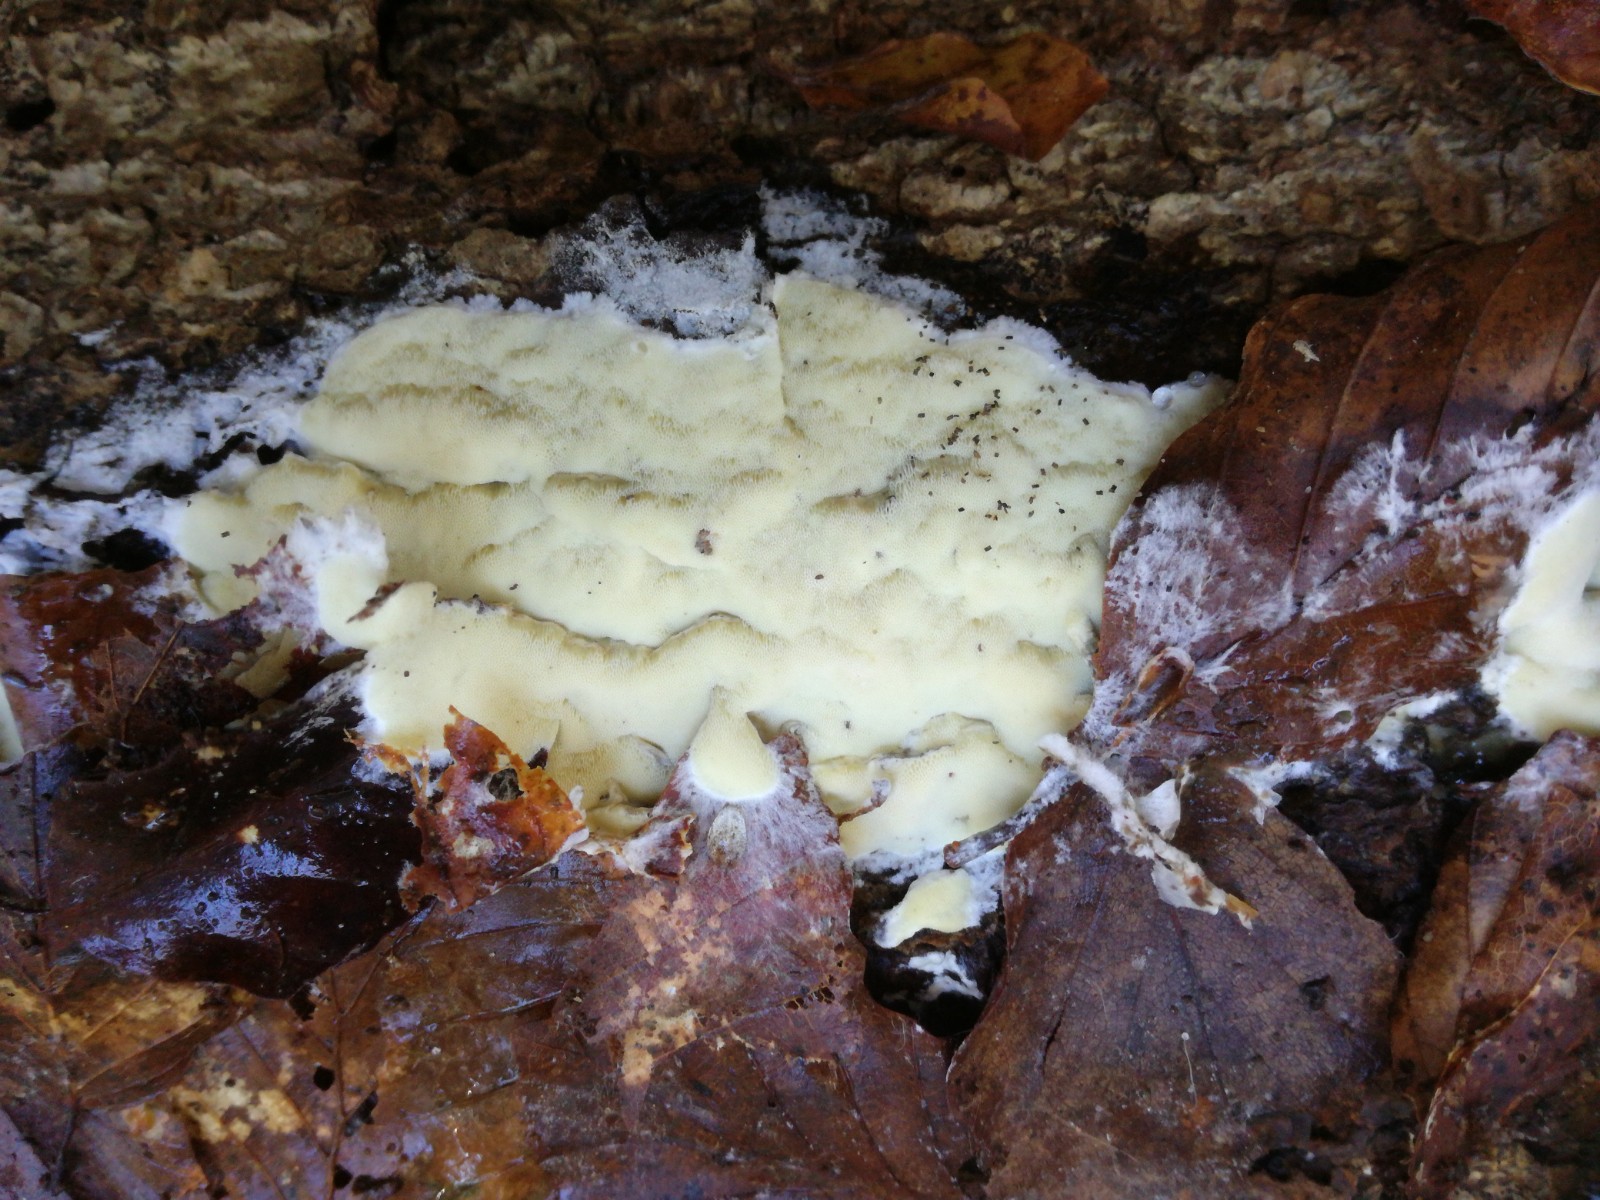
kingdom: Fungi
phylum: Basidiomycota
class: Agaricomycetes
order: Polyporales
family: Irpicaceae
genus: Gloeoporus
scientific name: Gloeoporus pannocinctus
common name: grøngul foldporesvamp
